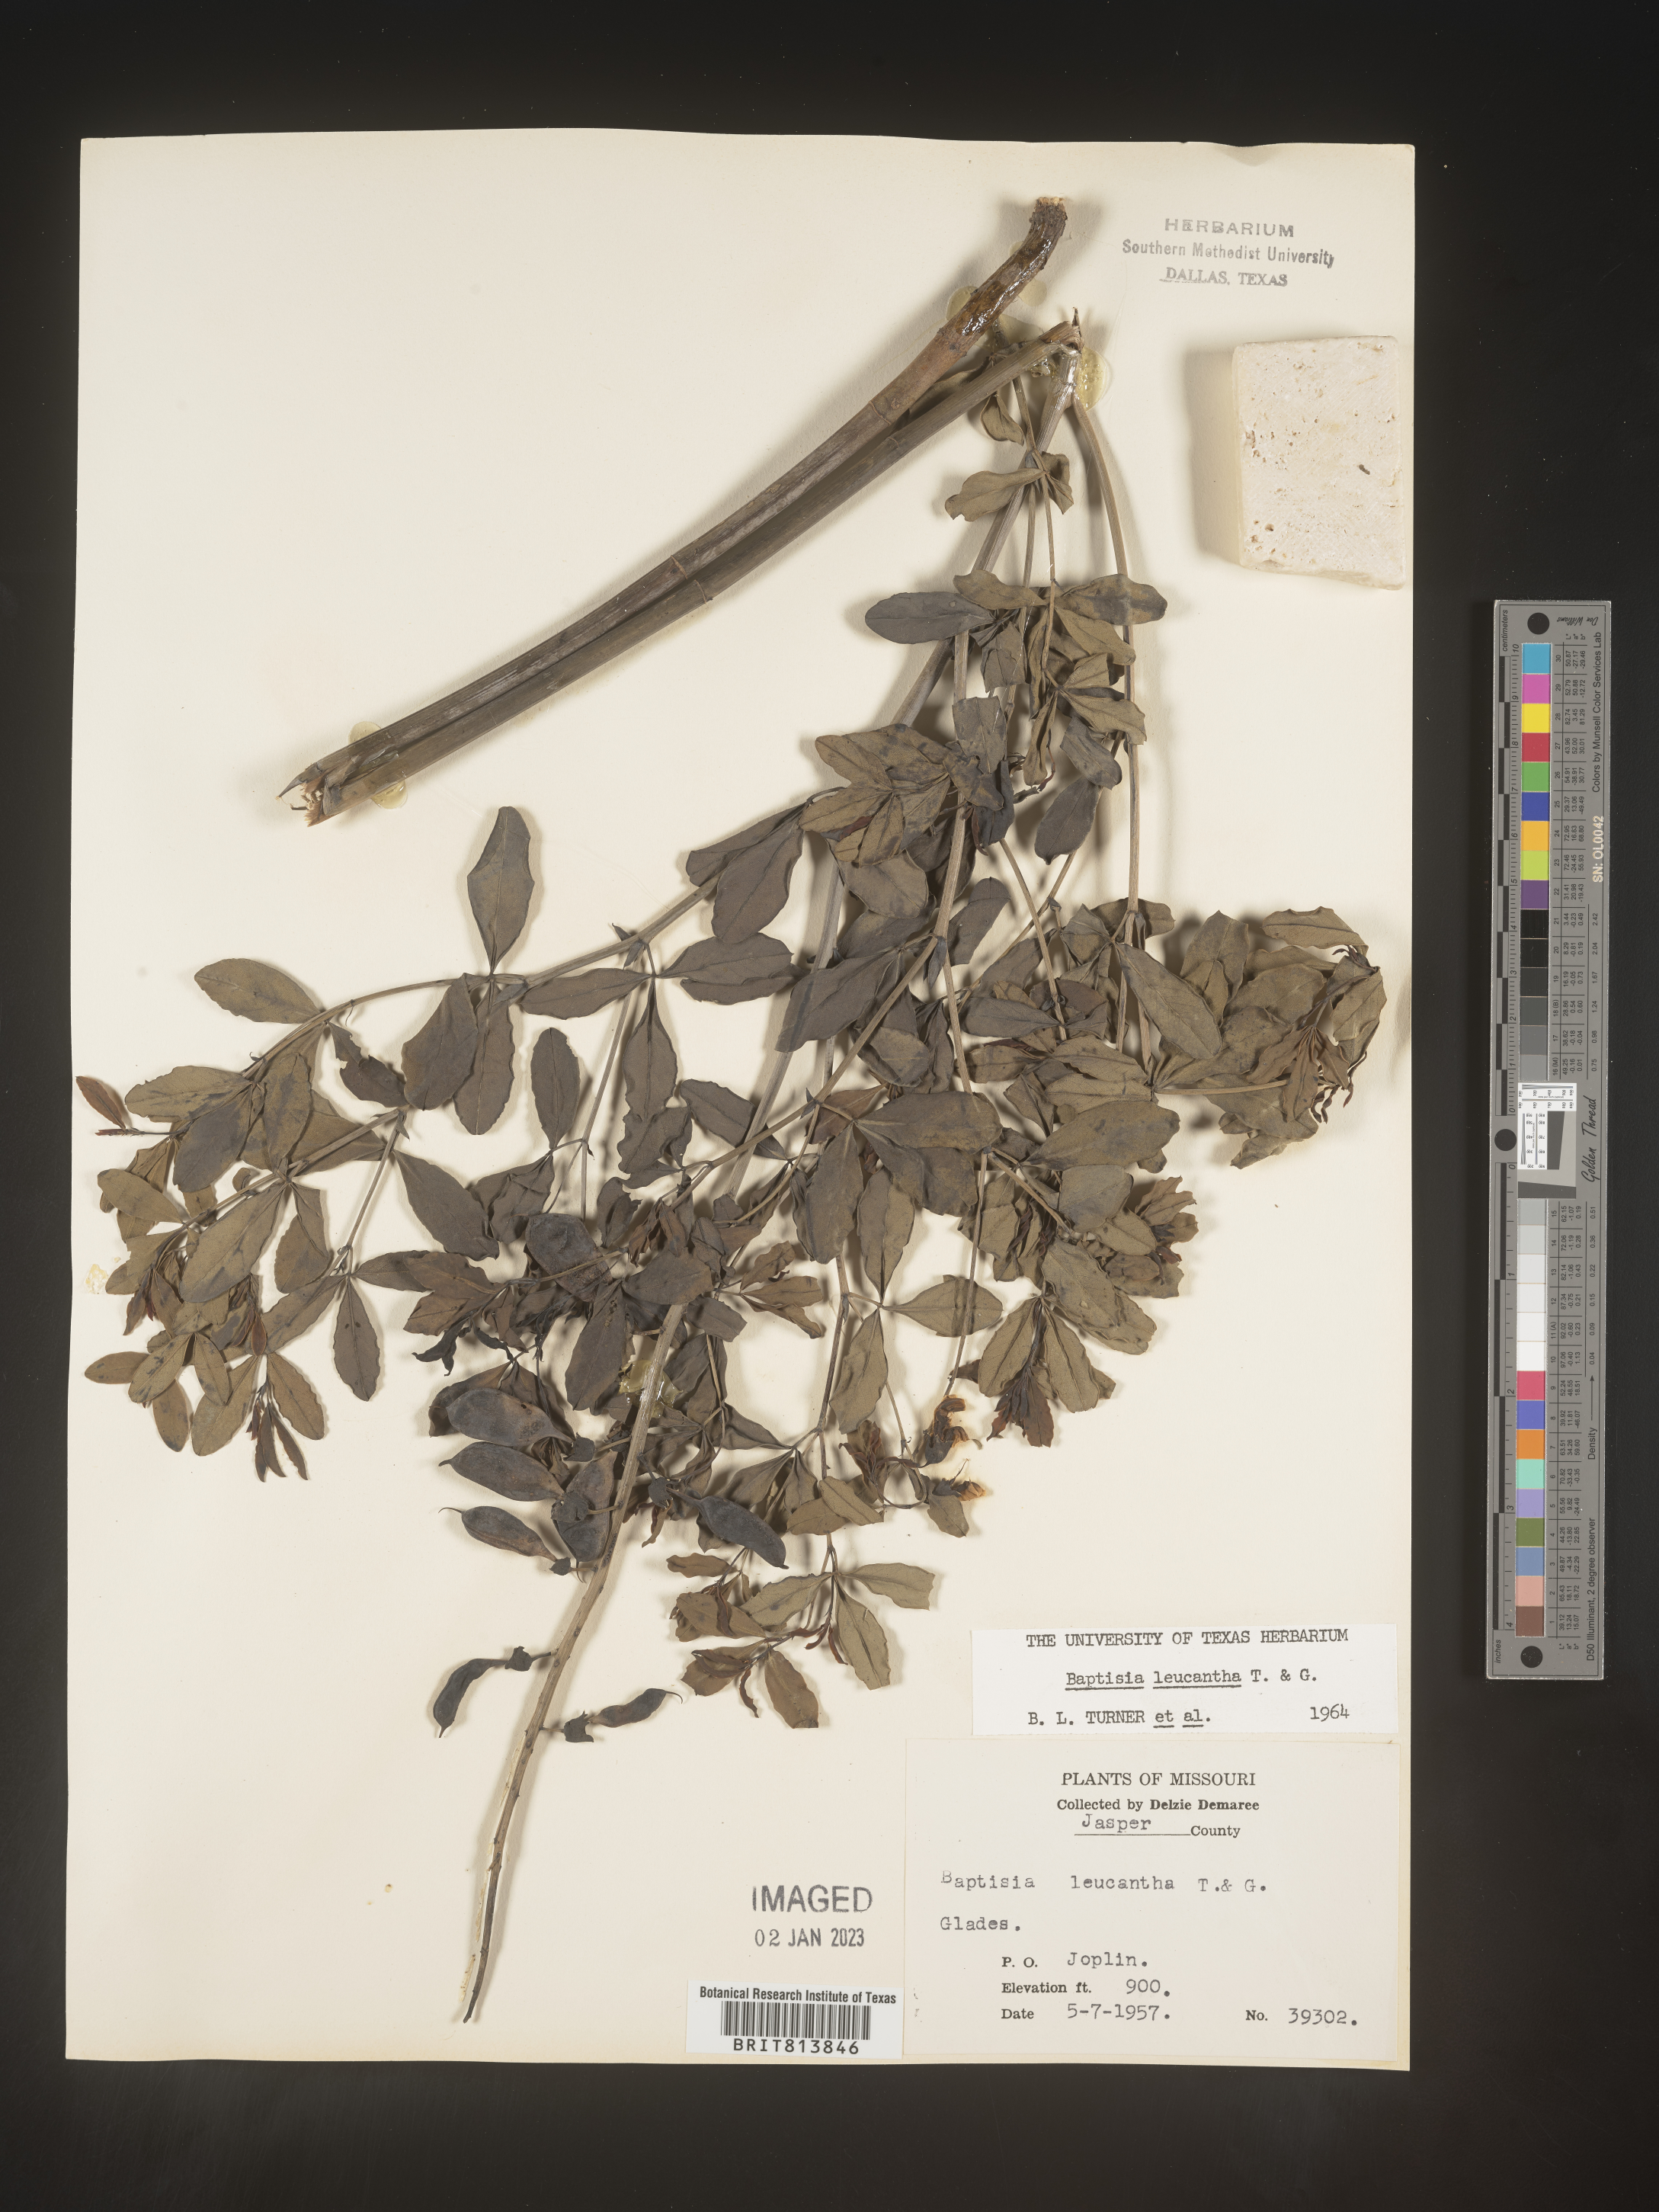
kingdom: Plantae
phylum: Tracheophyta
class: Magnoliopsida
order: Fabales
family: Fabaceae
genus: Baptisia
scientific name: Baptisia alba
